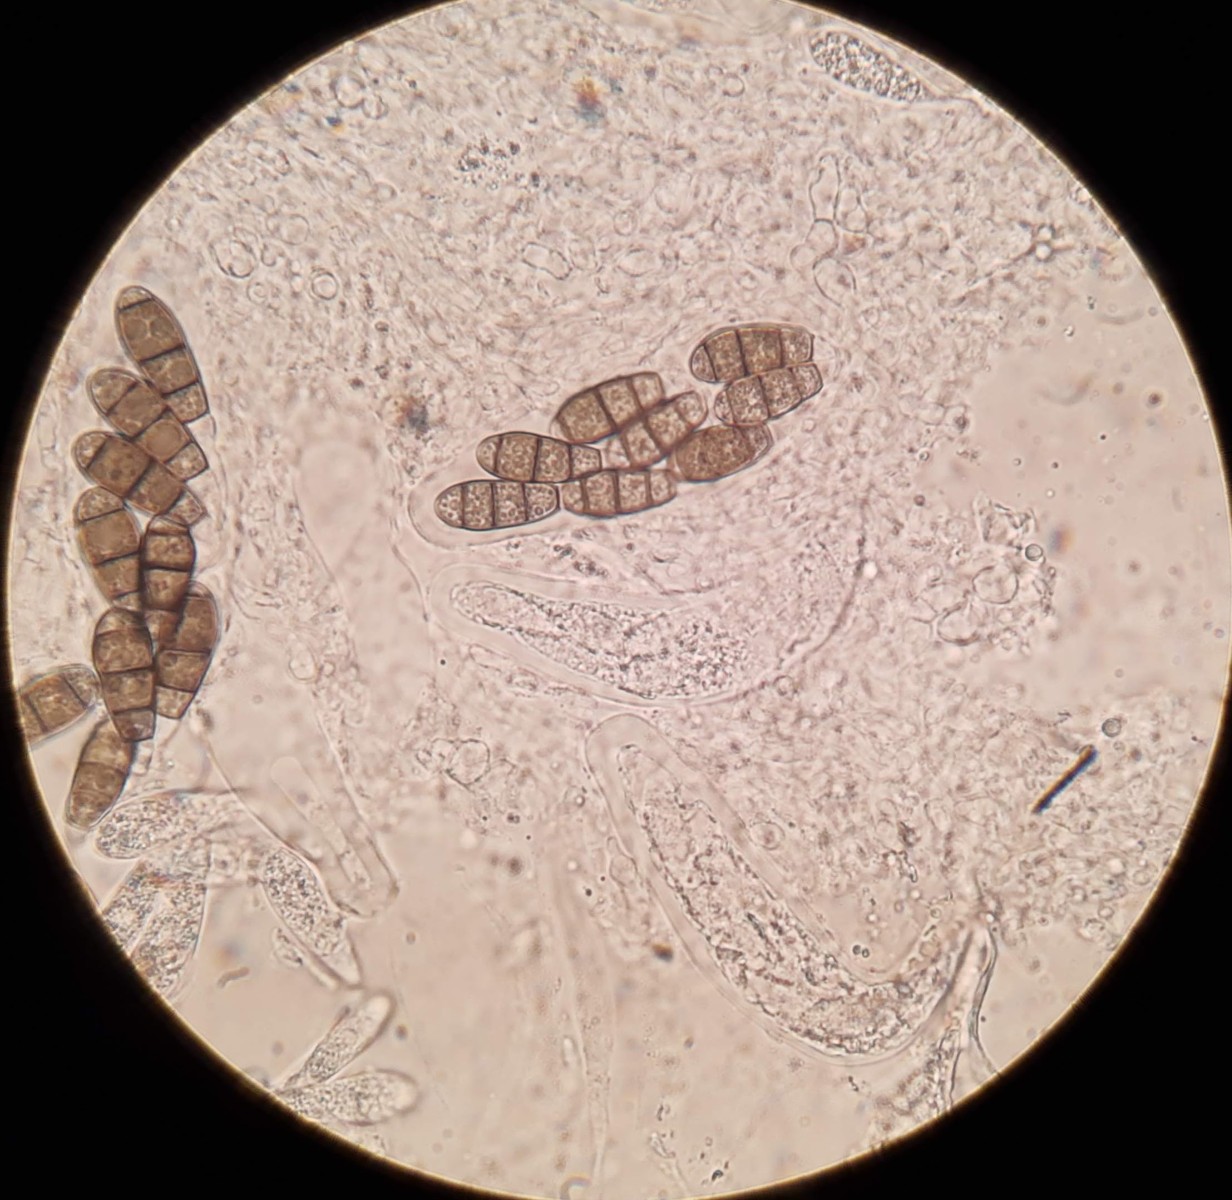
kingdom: Fungi
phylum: Ascomycota
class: Dothideomycetes
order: Tubeufiales
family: Tubeufiaceae
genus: Rebentischia
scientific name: Rebentischia massalongoi
